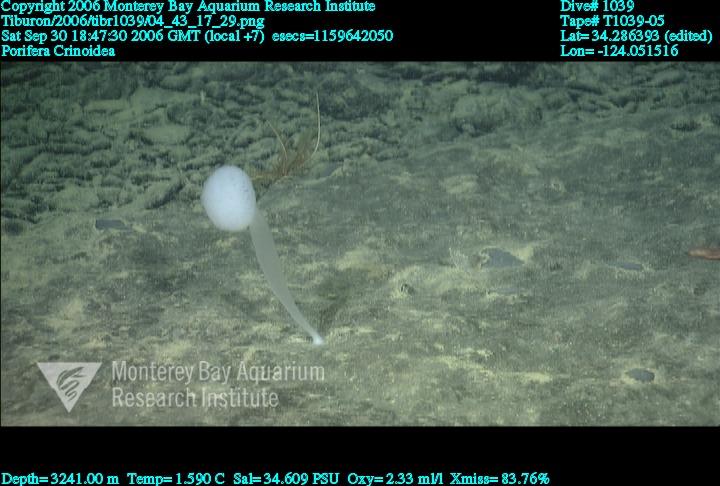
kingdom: Animalia
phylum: Porifera
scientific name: Porifera
